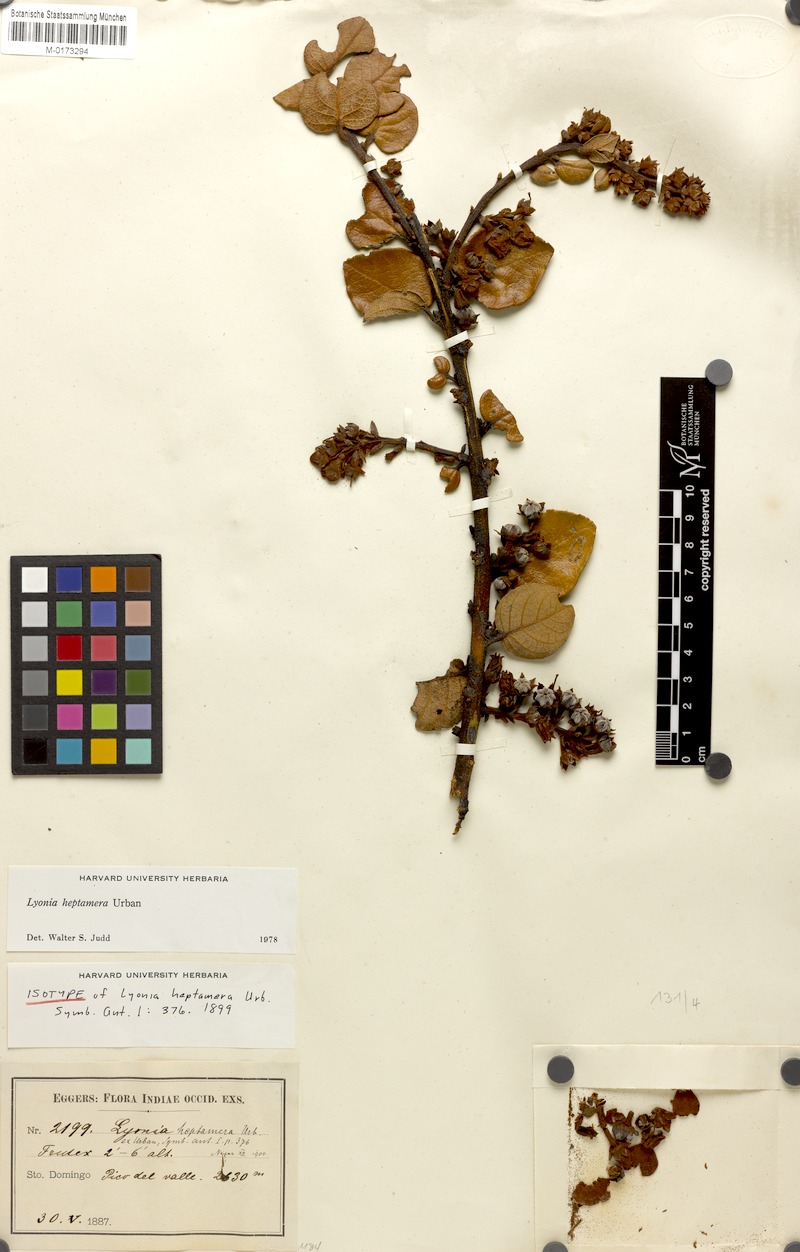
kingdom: Plantae
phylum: Tracheophyta
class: Magnoliopsida
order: Ericales
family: Ericaceae
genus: Lyonia
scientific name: Lyonia heptamera
